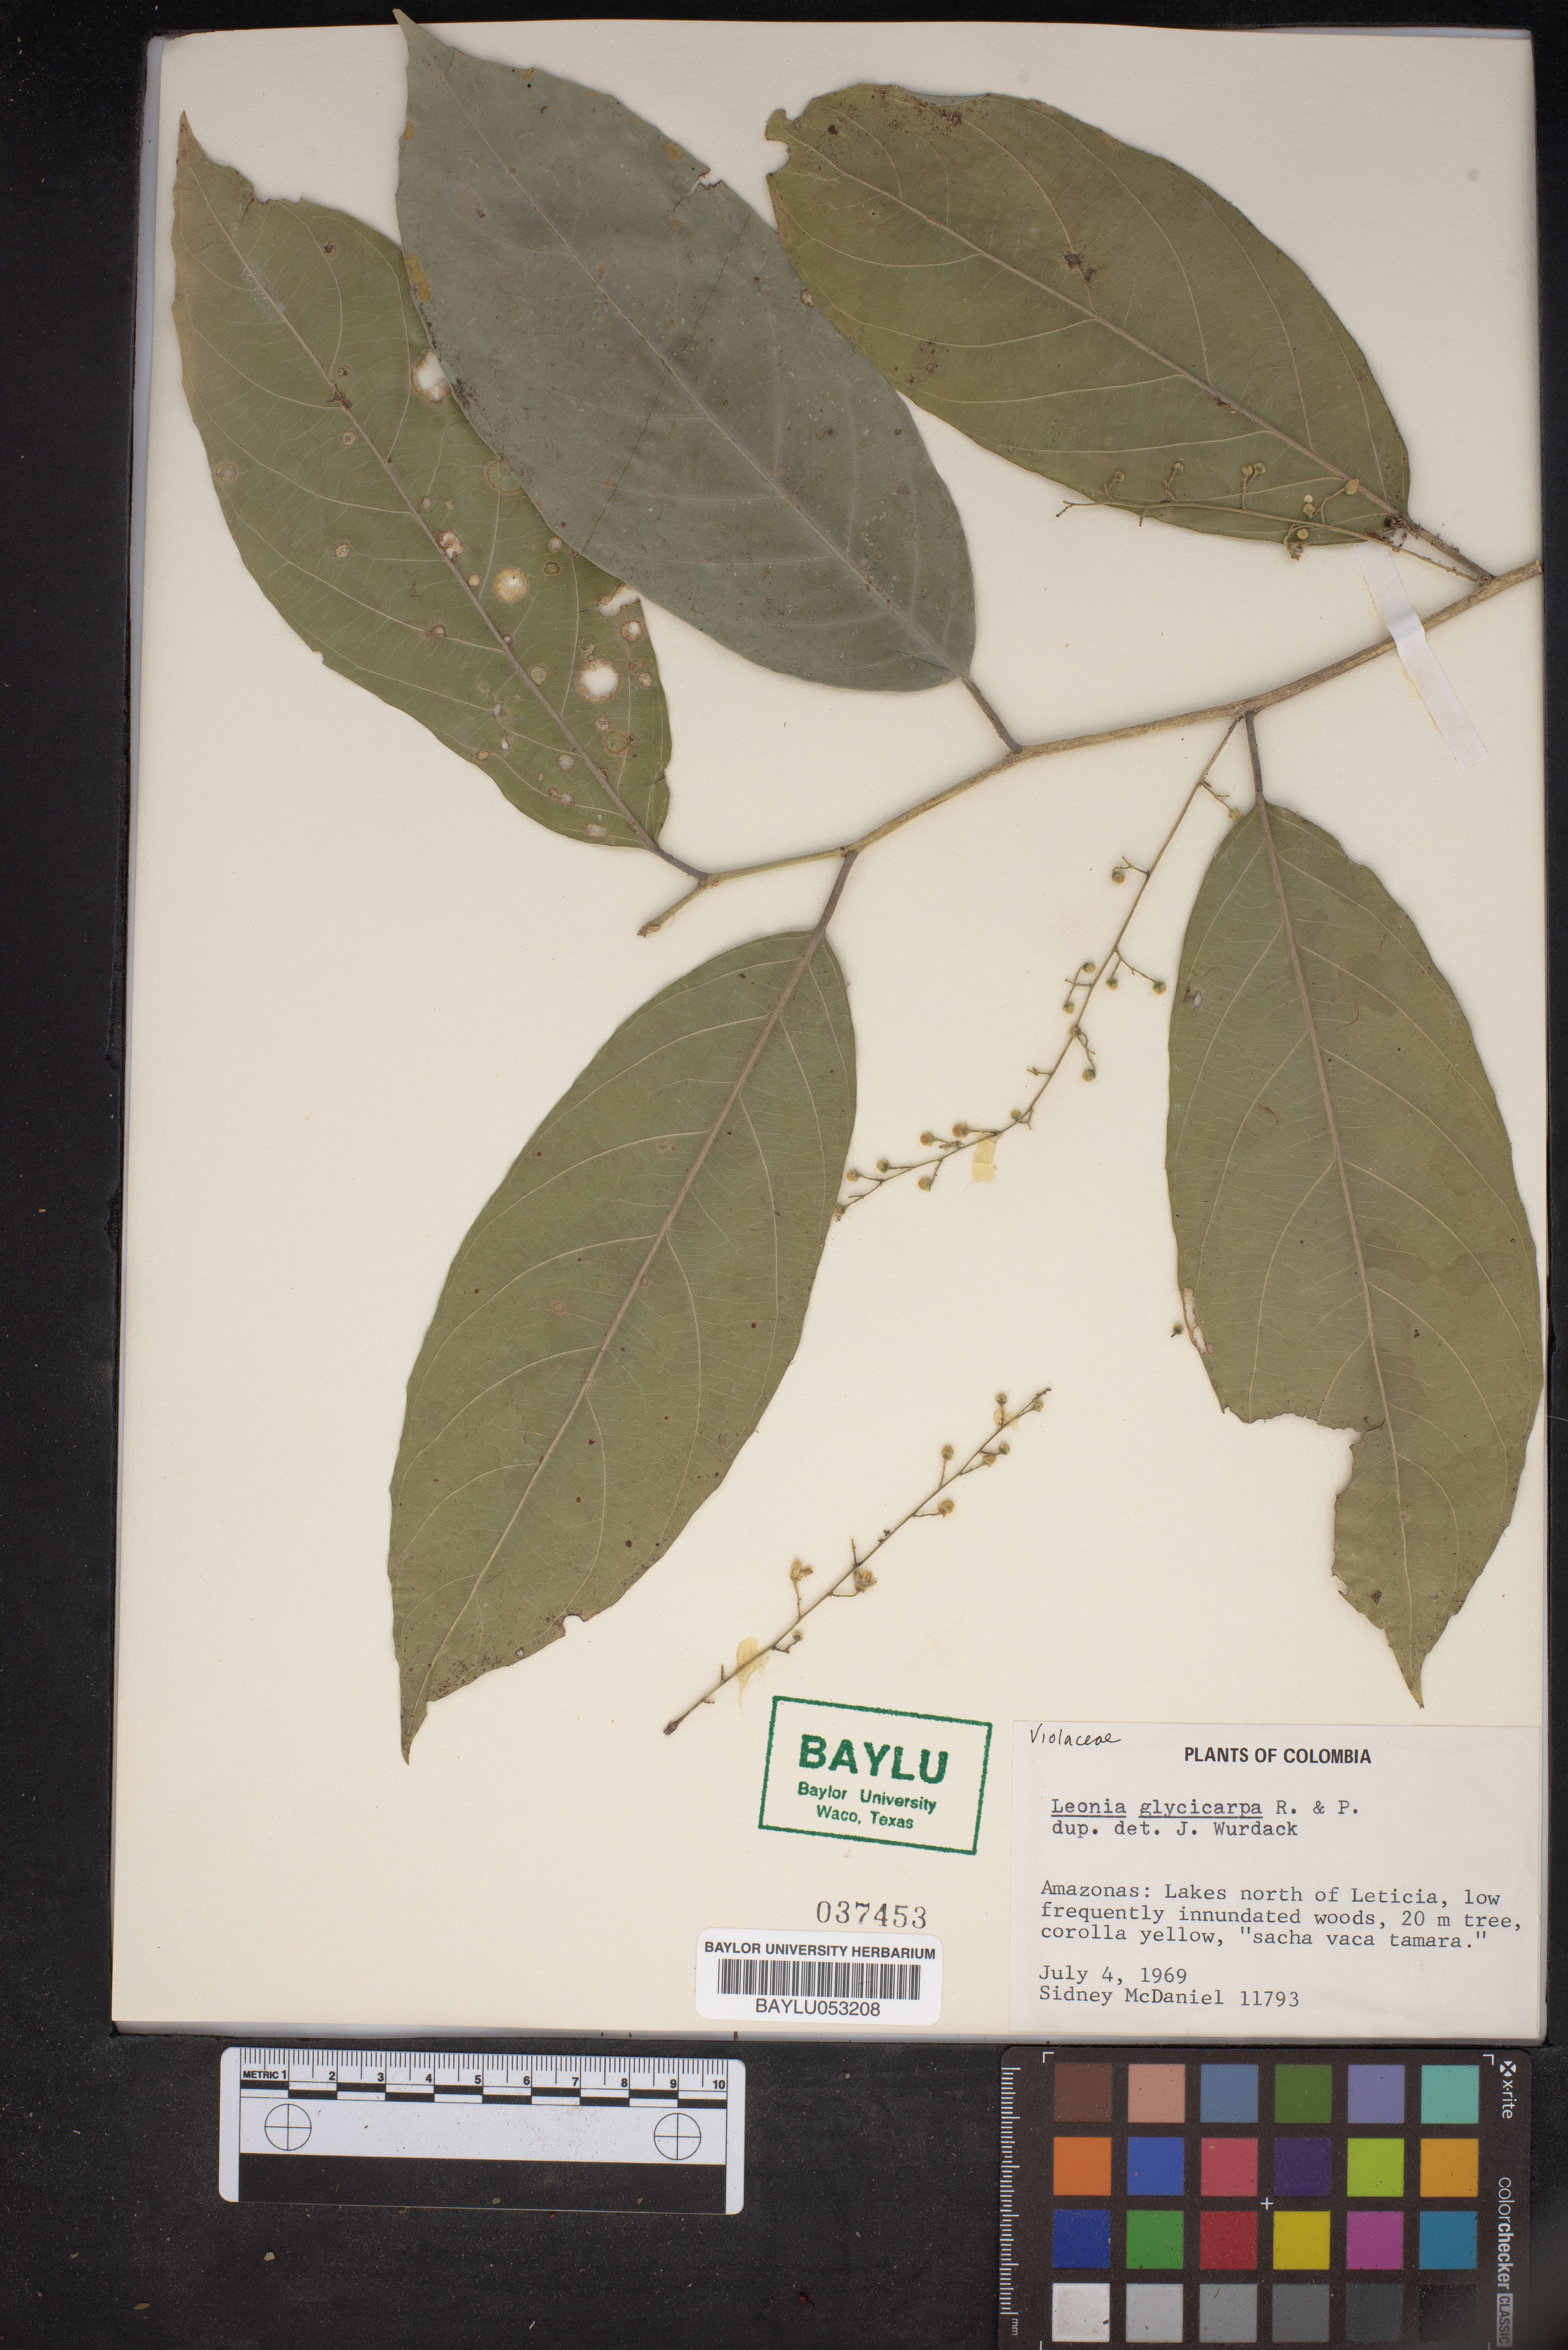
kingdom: Plantae
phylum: Tracheophyta
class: Magnoliopsida
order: Malpighiales
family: Violaceae
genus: Leonia
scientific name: Leonia glycycarpa
